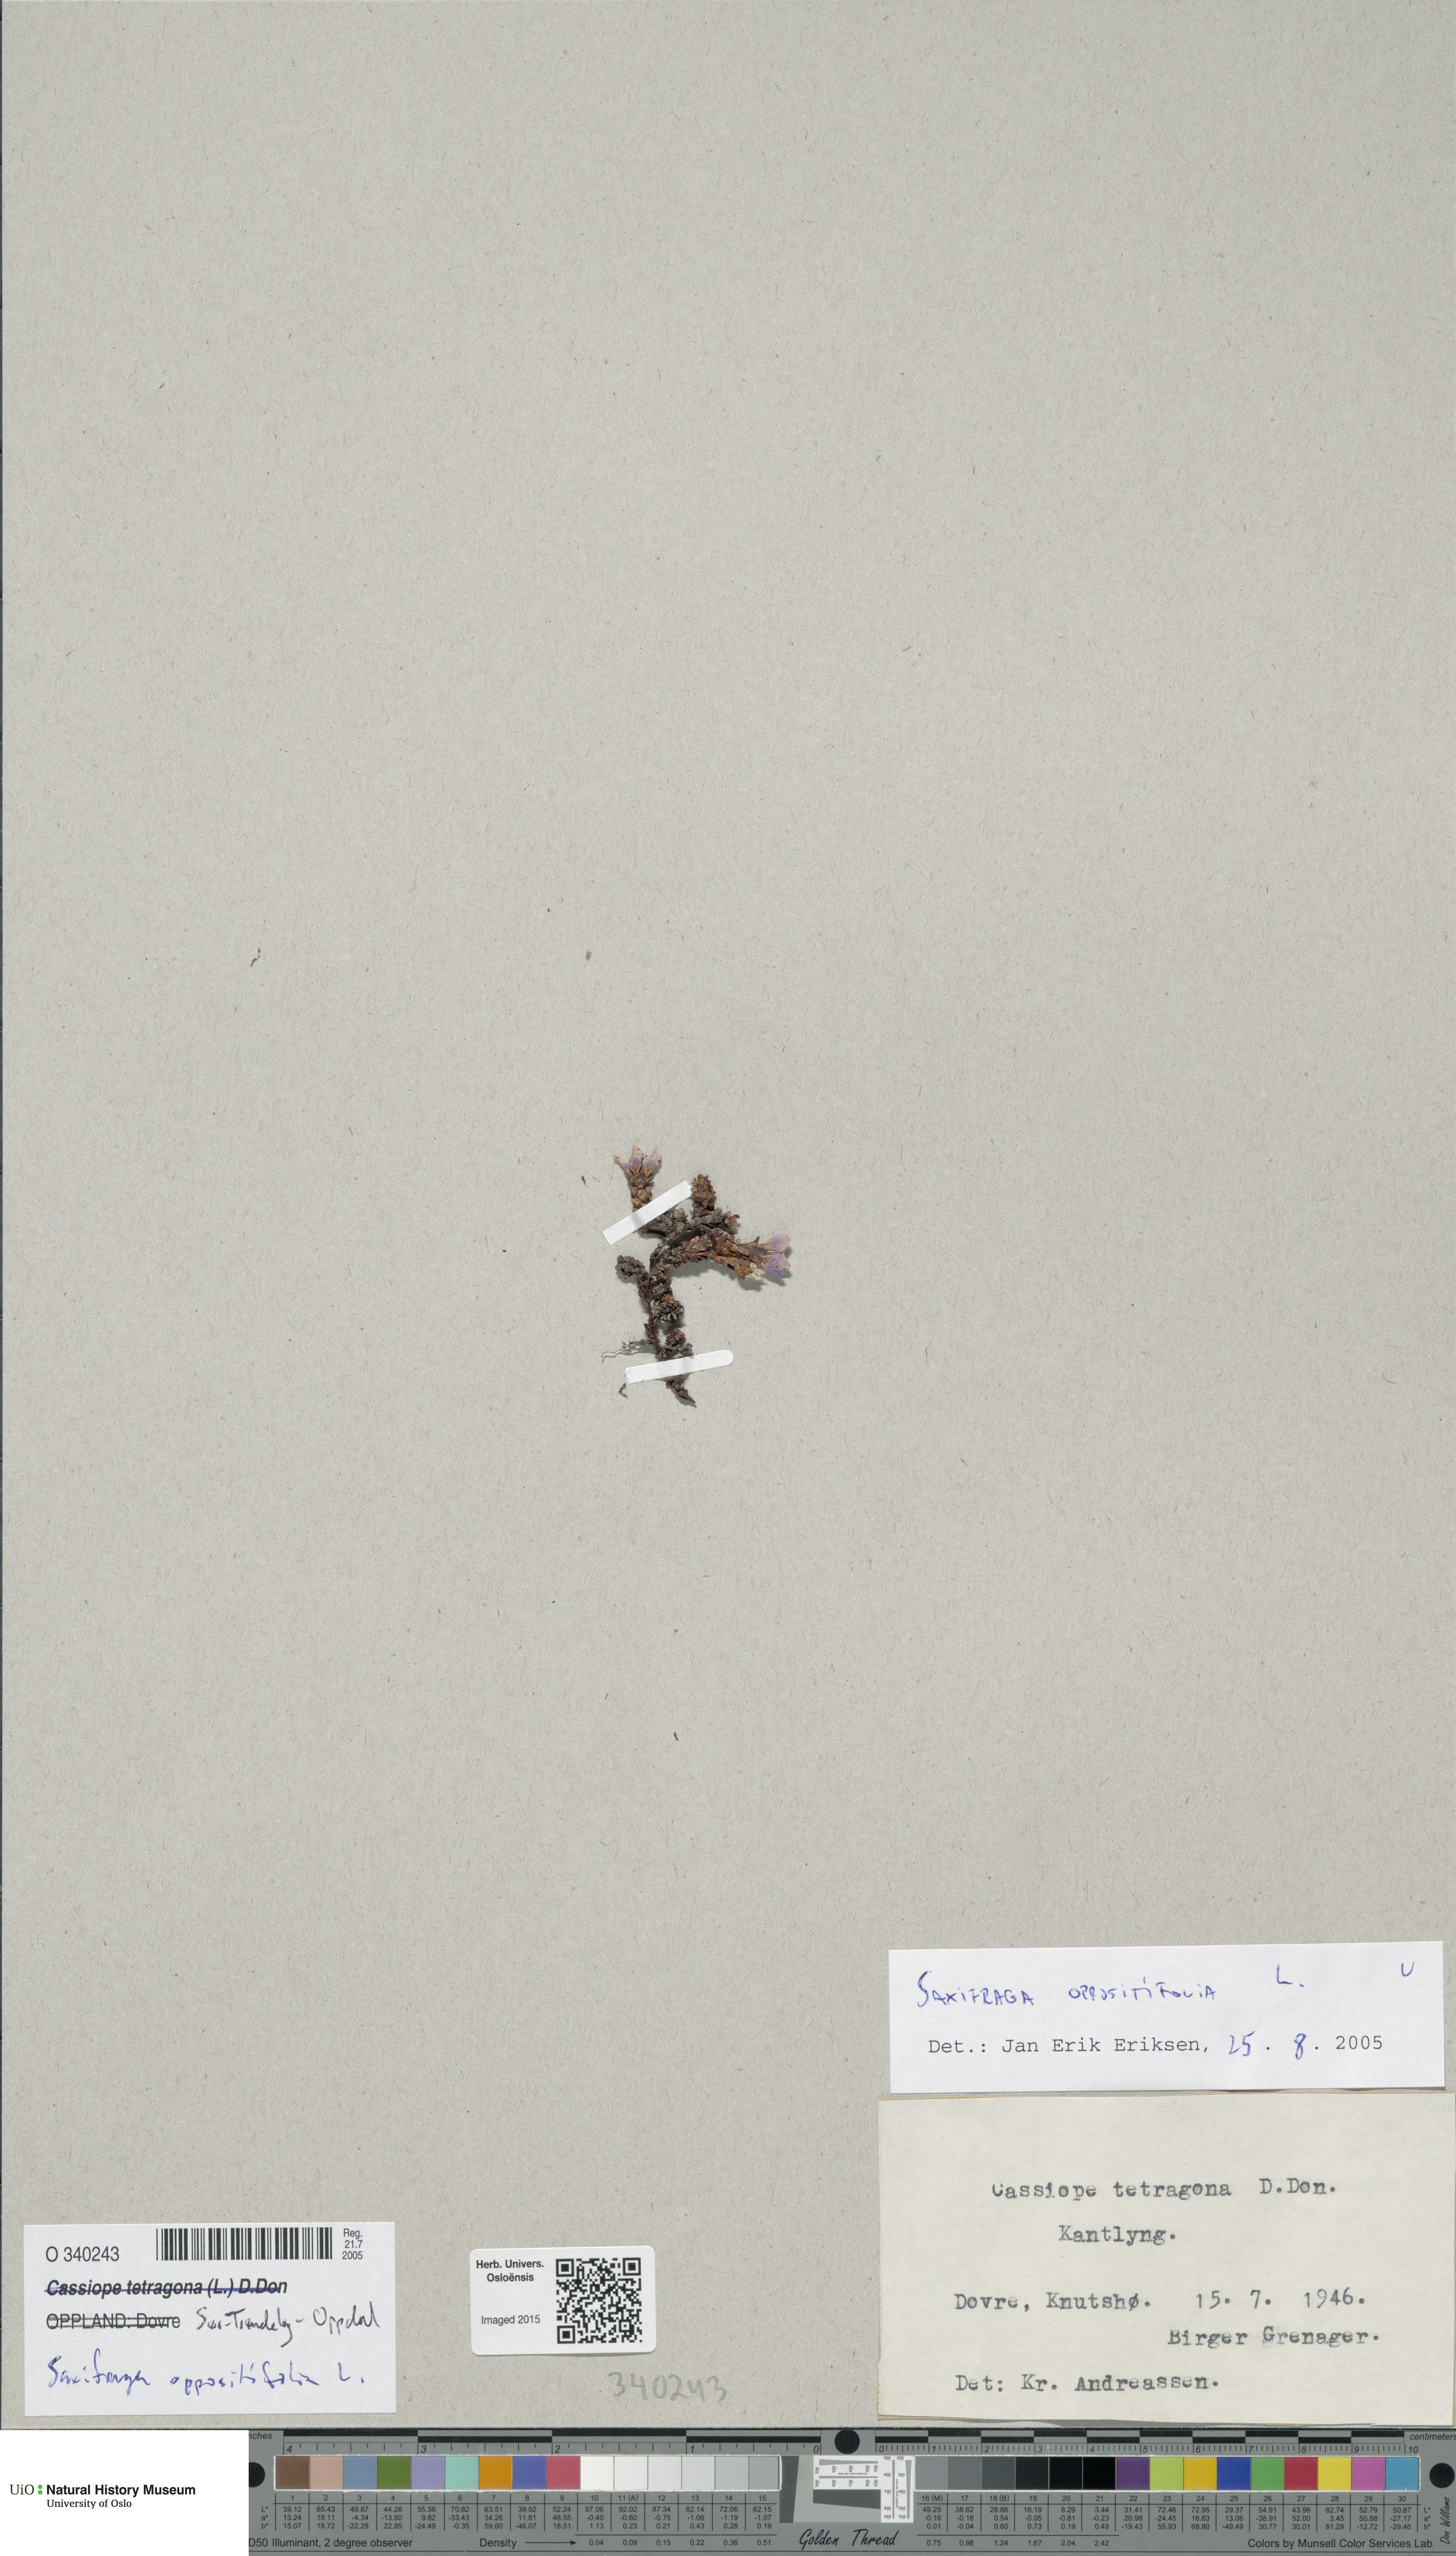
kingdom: Plantae
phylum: Tracheophyta
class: Magnoliopsida
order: Saxifragales
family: Saxifragaceae
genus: Saxifraga
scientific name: Saxifraga oppositifolia
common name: Purple saxifrage
